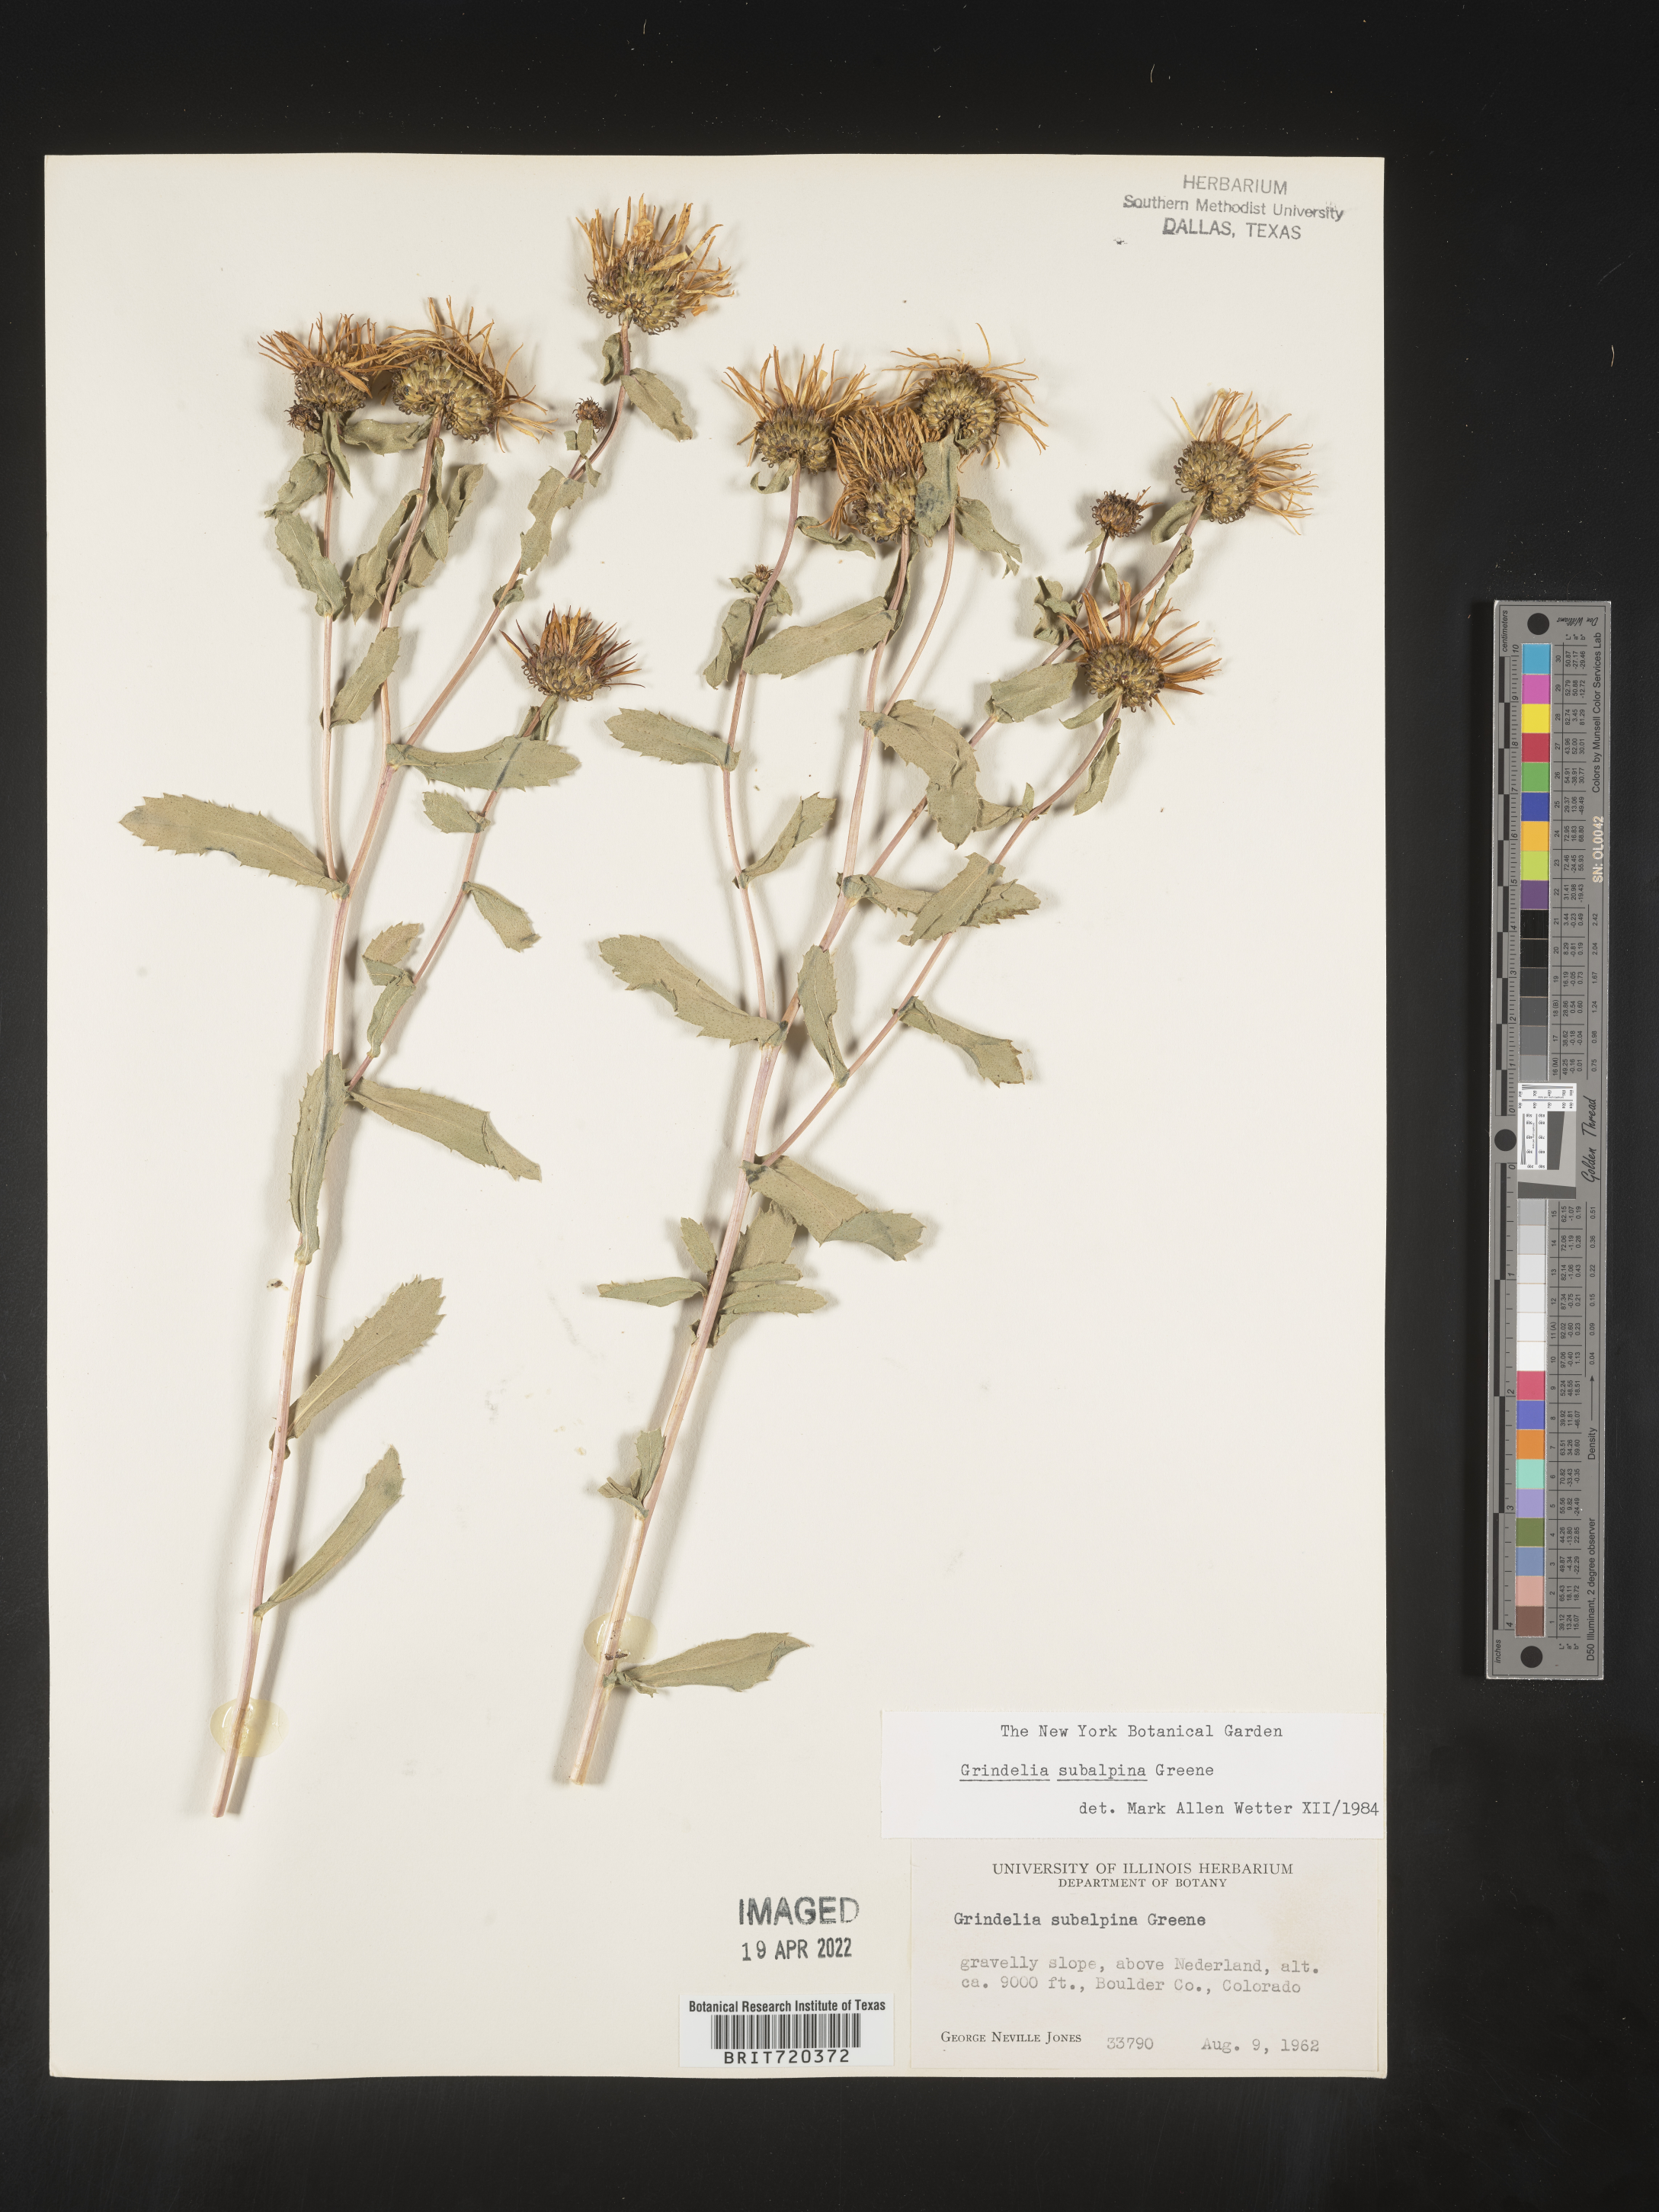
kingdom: Plantae
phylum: Tracheophyta
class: Magnoliopsida
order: Asterales
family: Asteraceae
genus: Grindelia
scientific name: Grindelia subalpina
